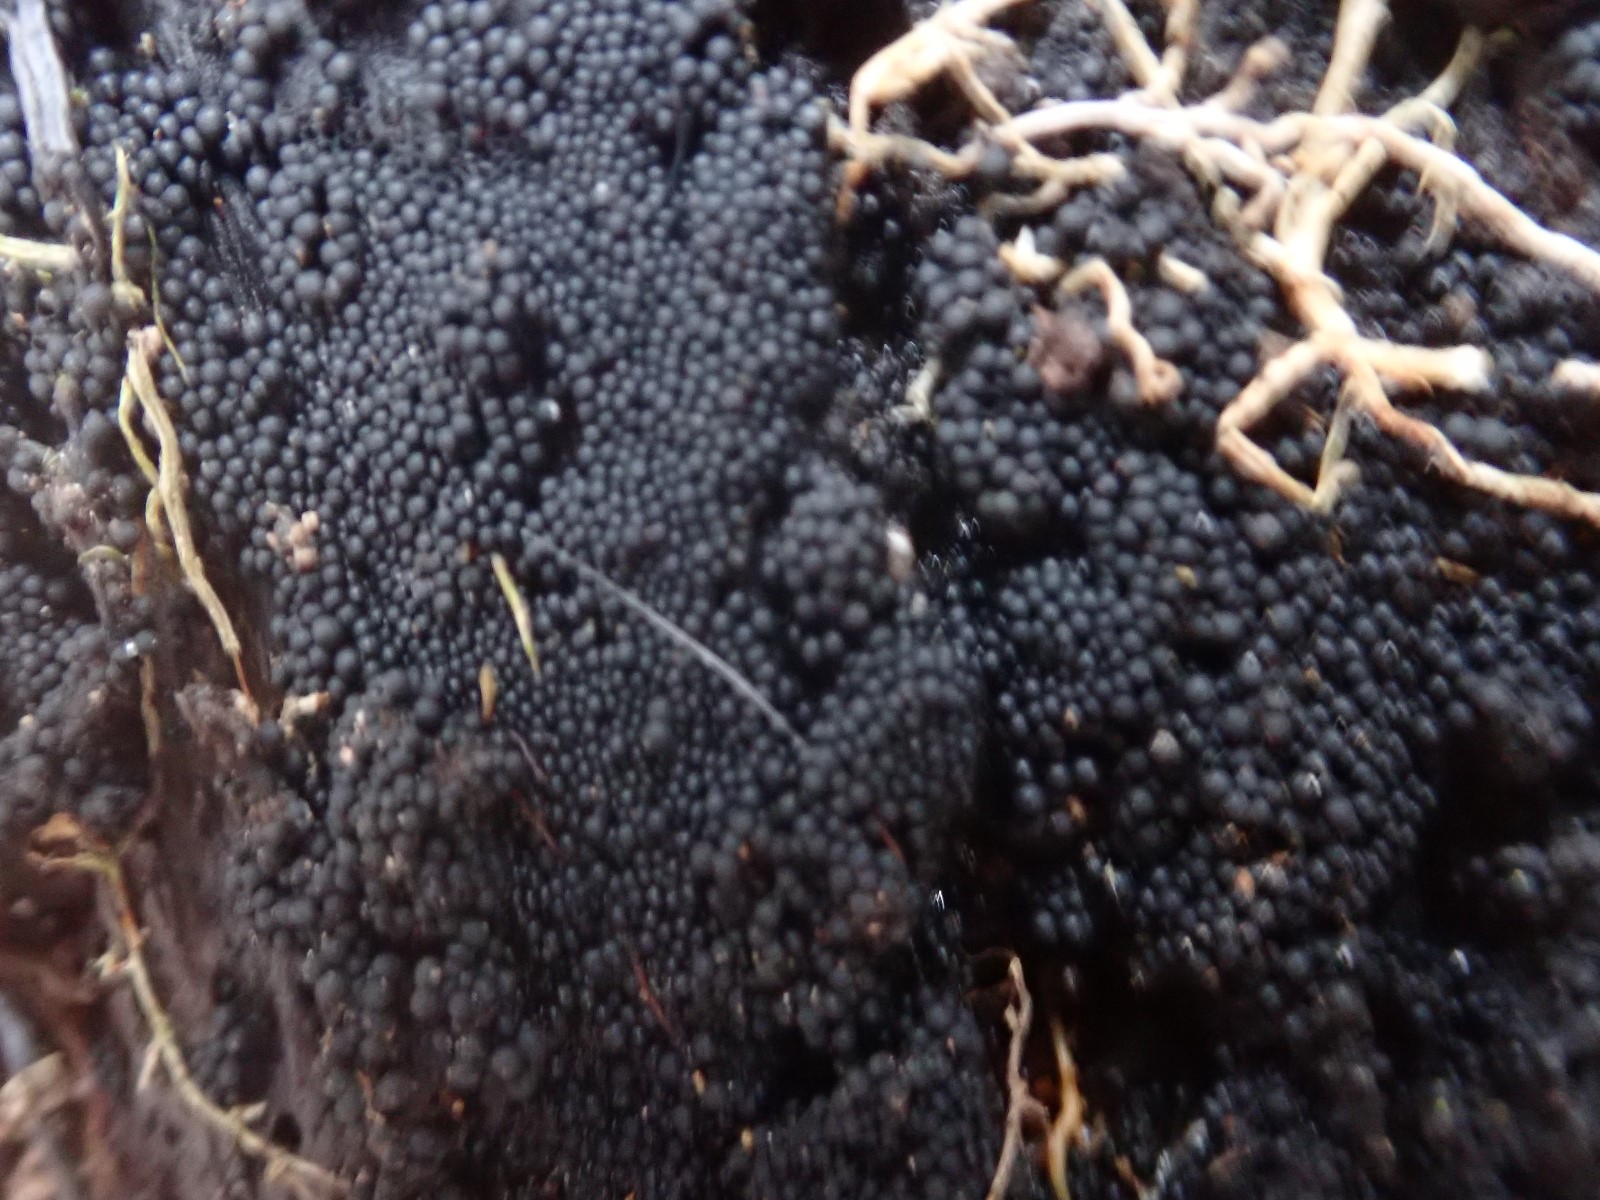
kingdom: Fungi
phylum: Ascomycota
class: Sordariomycetes
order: Sordariales
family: Helminthosphaeriaceae
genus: Ruzenia
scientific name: Ruzenia spermoides
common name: glat børstekerne
